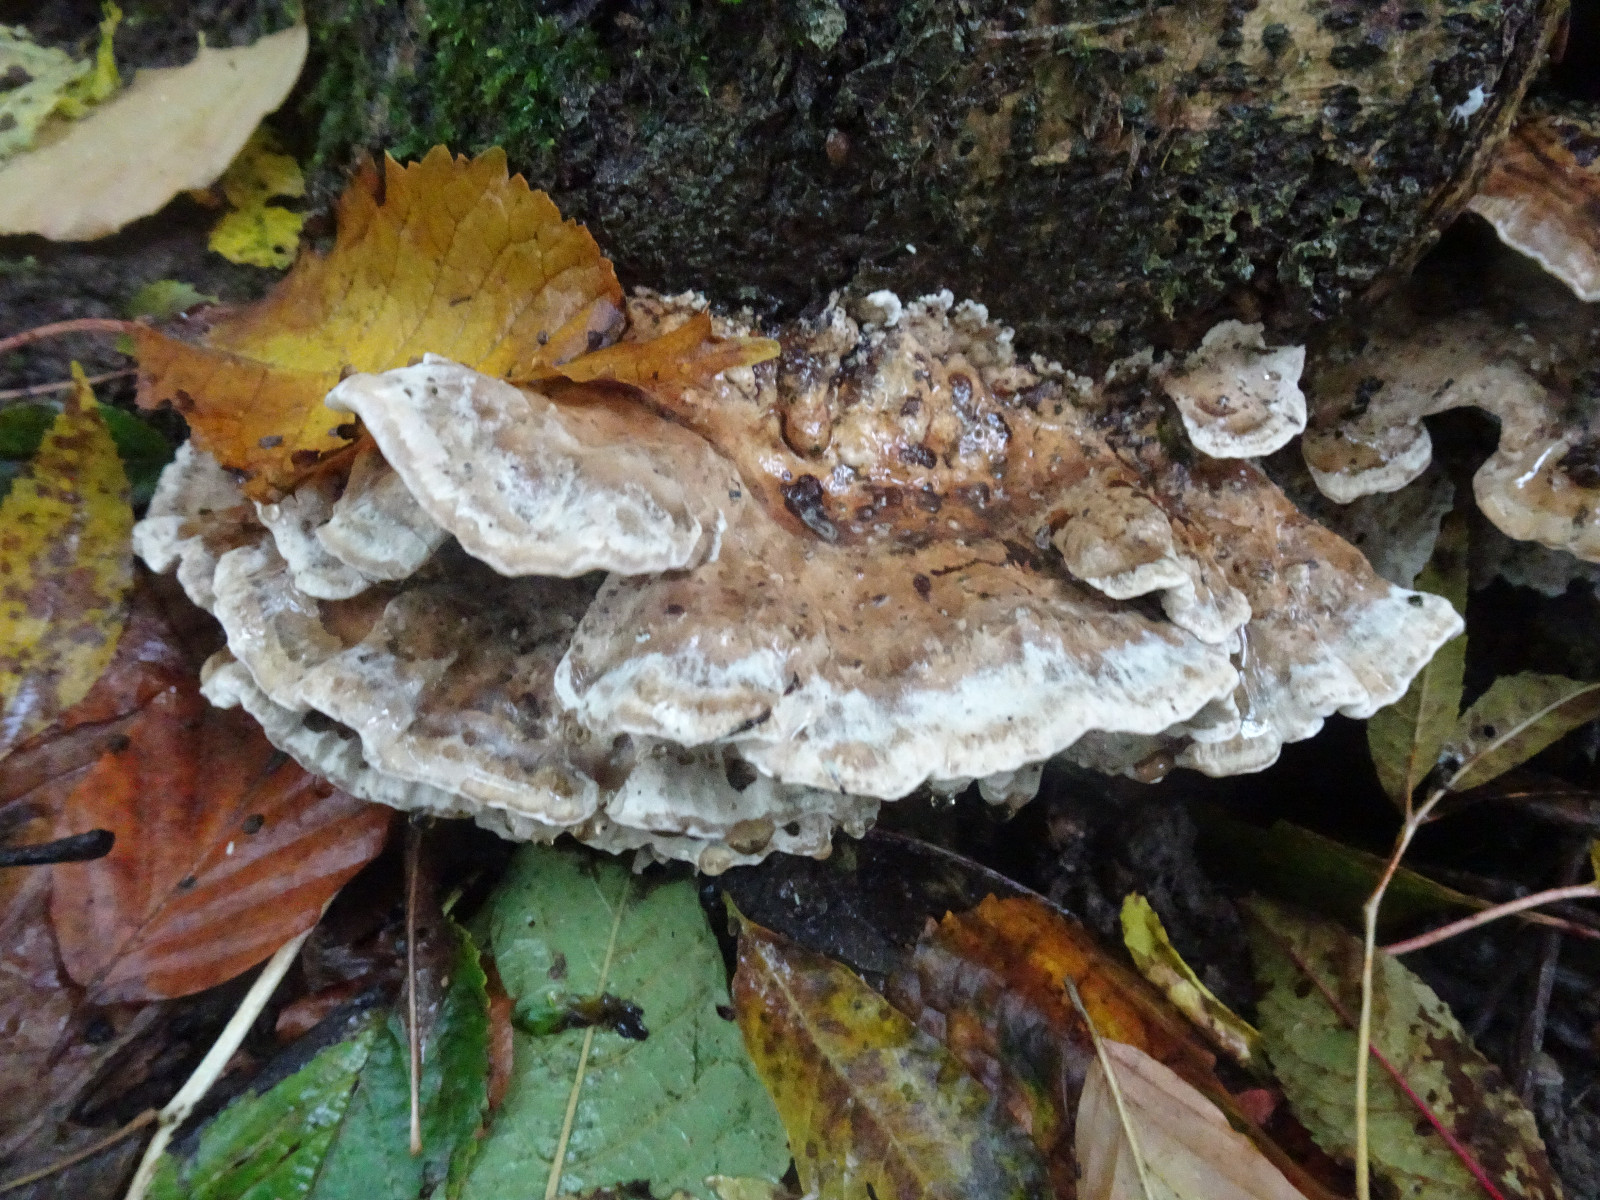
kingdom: Fungi
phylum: Basidiomycota
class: Agaricomycetes
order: Polyporales
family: Phanerochaetaceae
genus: Bjerkandera
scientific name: Bjerkandera fumosa
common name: grågul sodporesvamp
